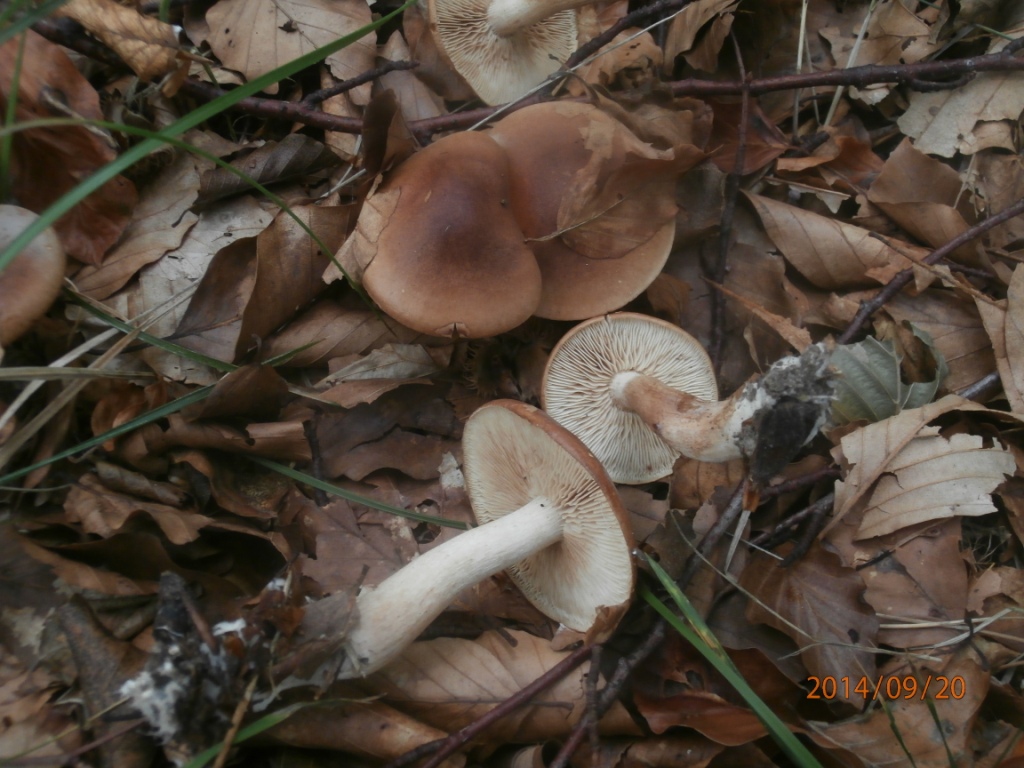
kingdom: Fungi
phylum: Basidiomycota
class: Agaricomycetes
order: Agaricales
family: Tricholomataceae
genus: Tricholoma
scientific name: Tricholoma ustale
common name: sveden ridderhat
